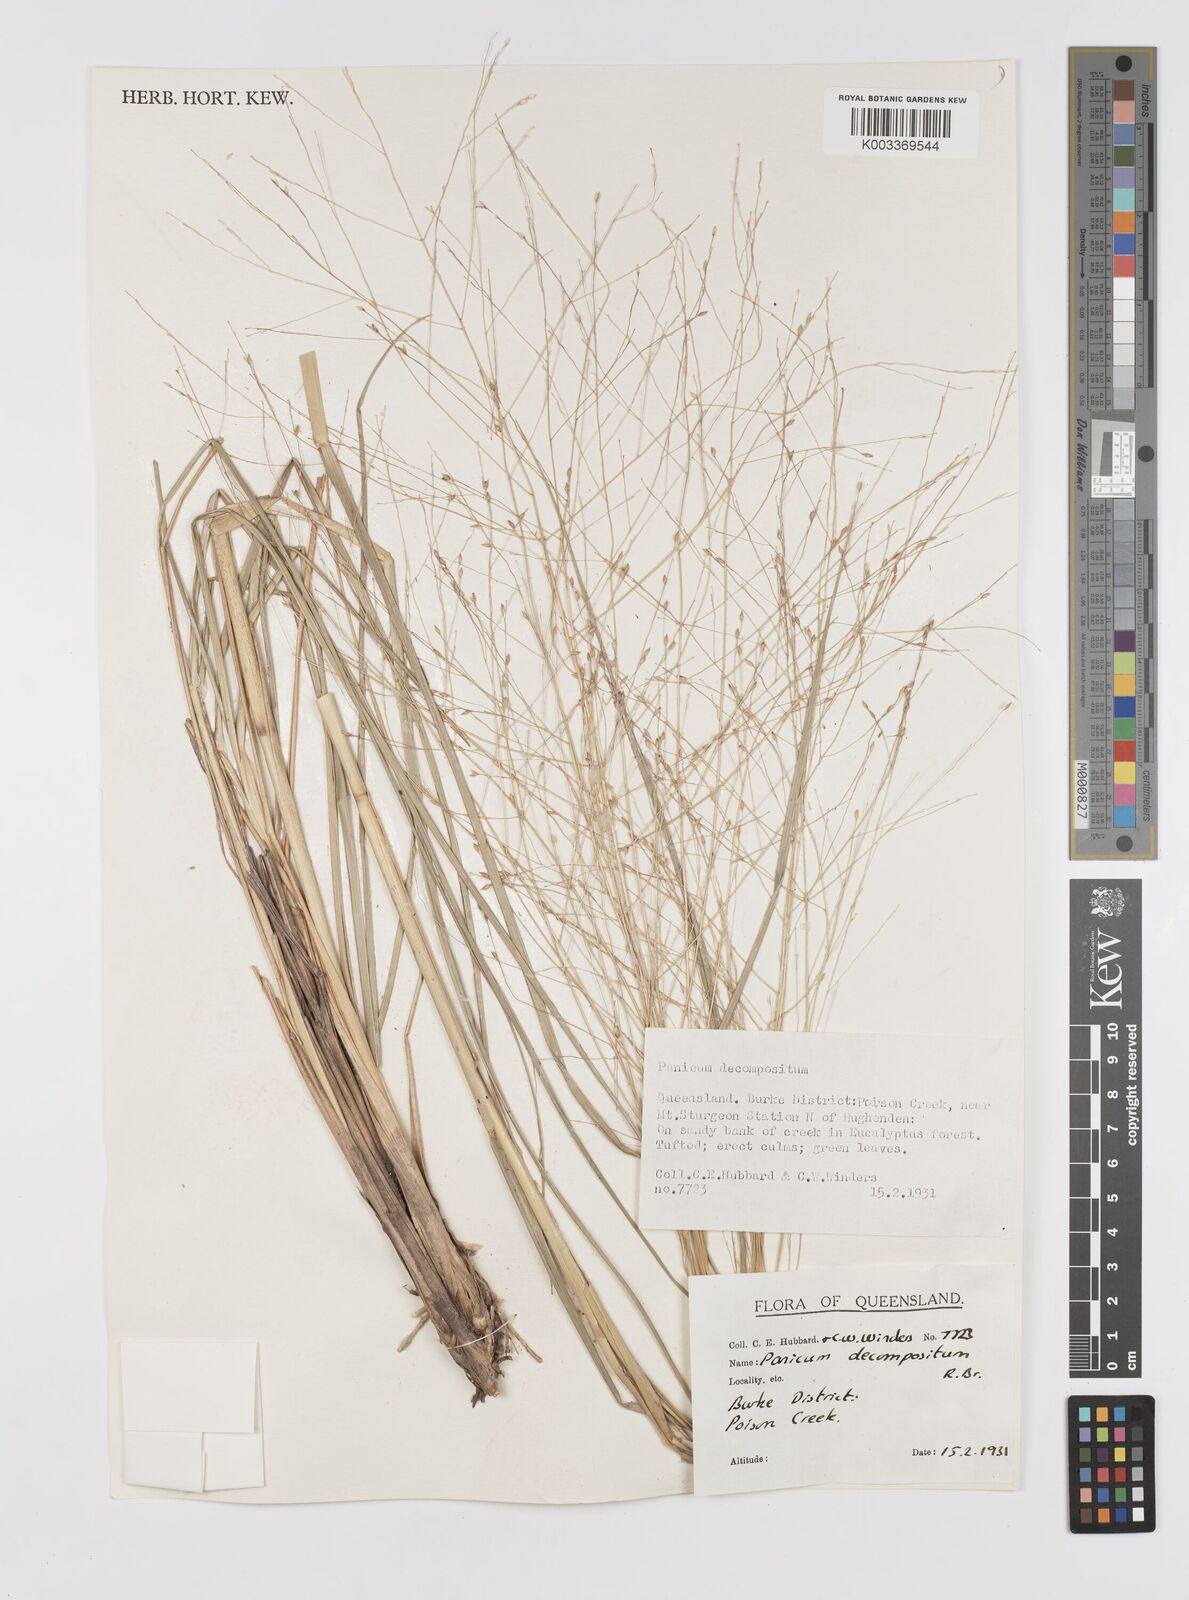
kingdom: Plantae
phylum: Tracheophyta
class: Liliopsida
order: Poales
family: Poaceae
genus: Panicum
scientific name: Panicum decompositum
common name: Australian millet
